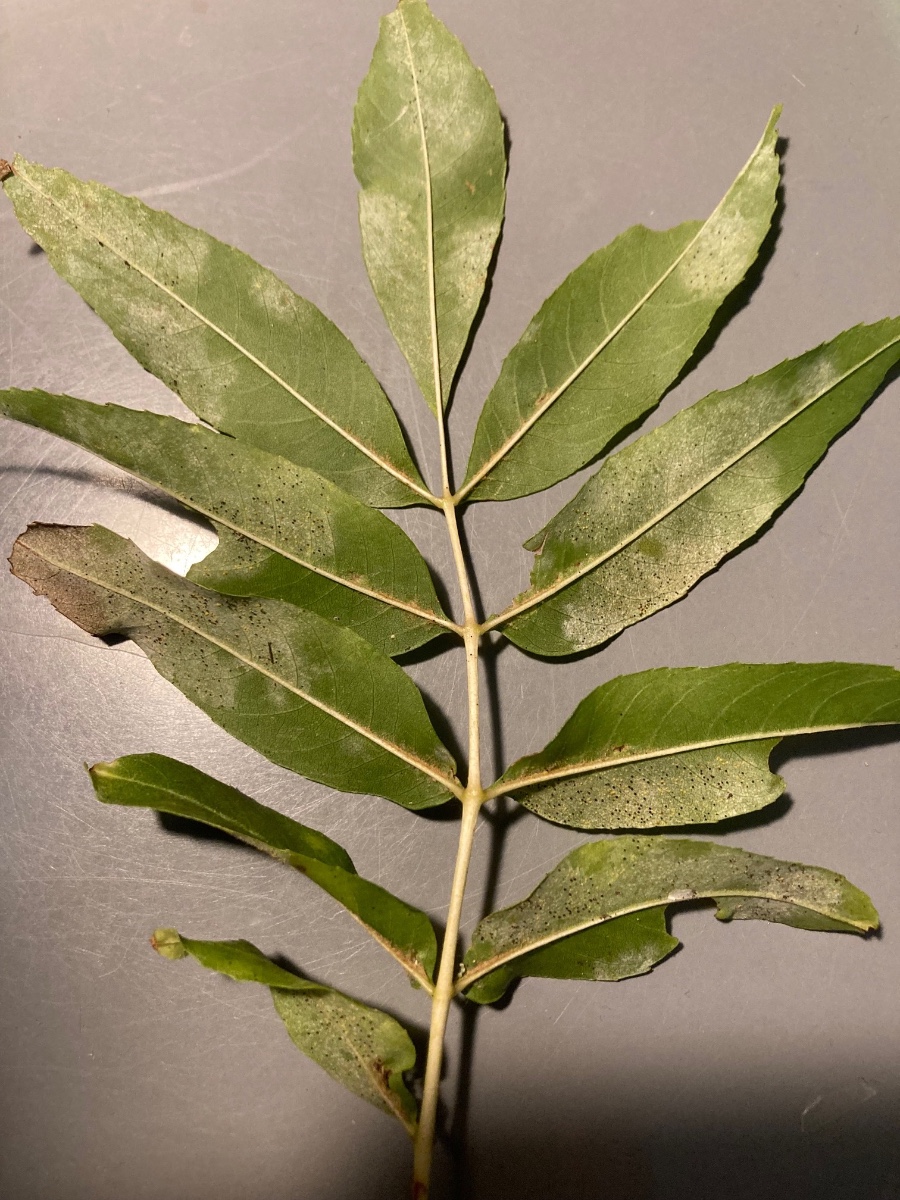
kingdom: Fungi
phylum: Ascomycota
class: Leotiomycetes
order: Helotiales
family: Erysiphaceae
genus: Phyllactinia
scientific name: Phyllactinia fraxini
